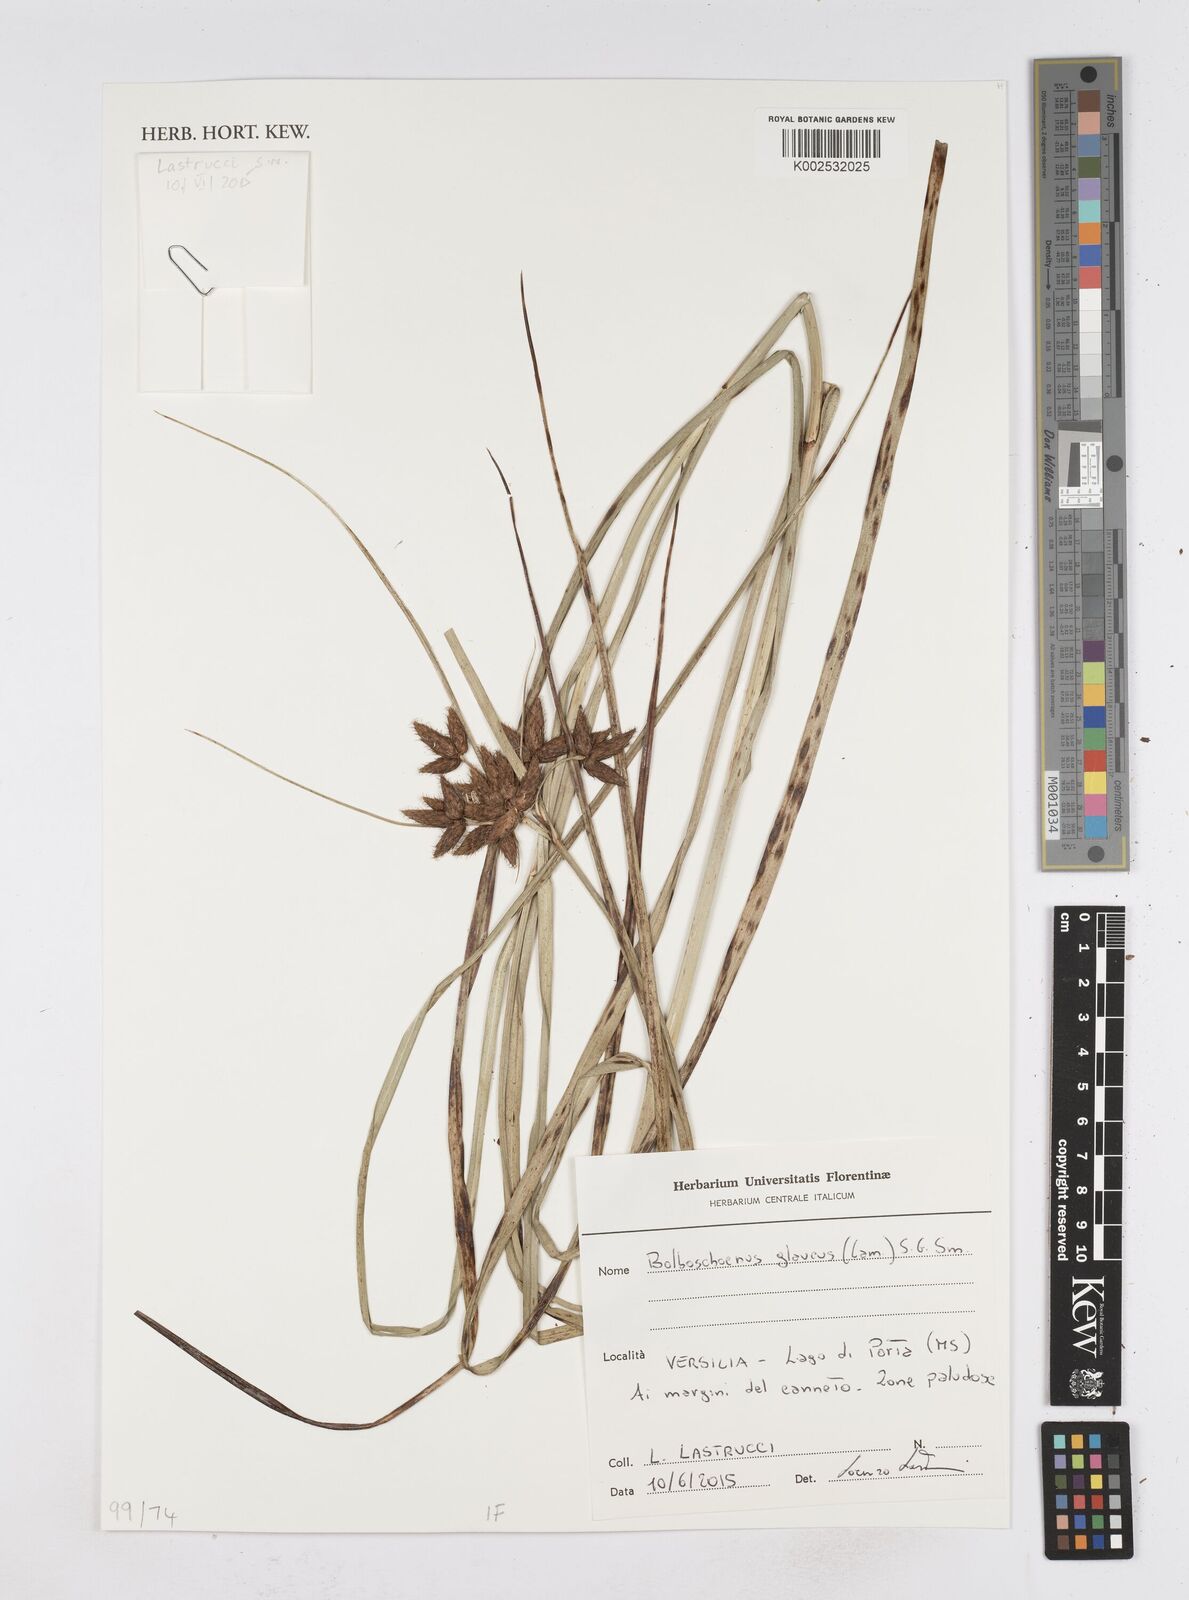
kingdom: Plantae
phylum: Tracheophyta
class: Liliopsida
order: Poales
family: Cyperaceae
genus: Bolboschoenus
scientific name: Bolboschoenus glaucus
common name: Tuberous bulrush
